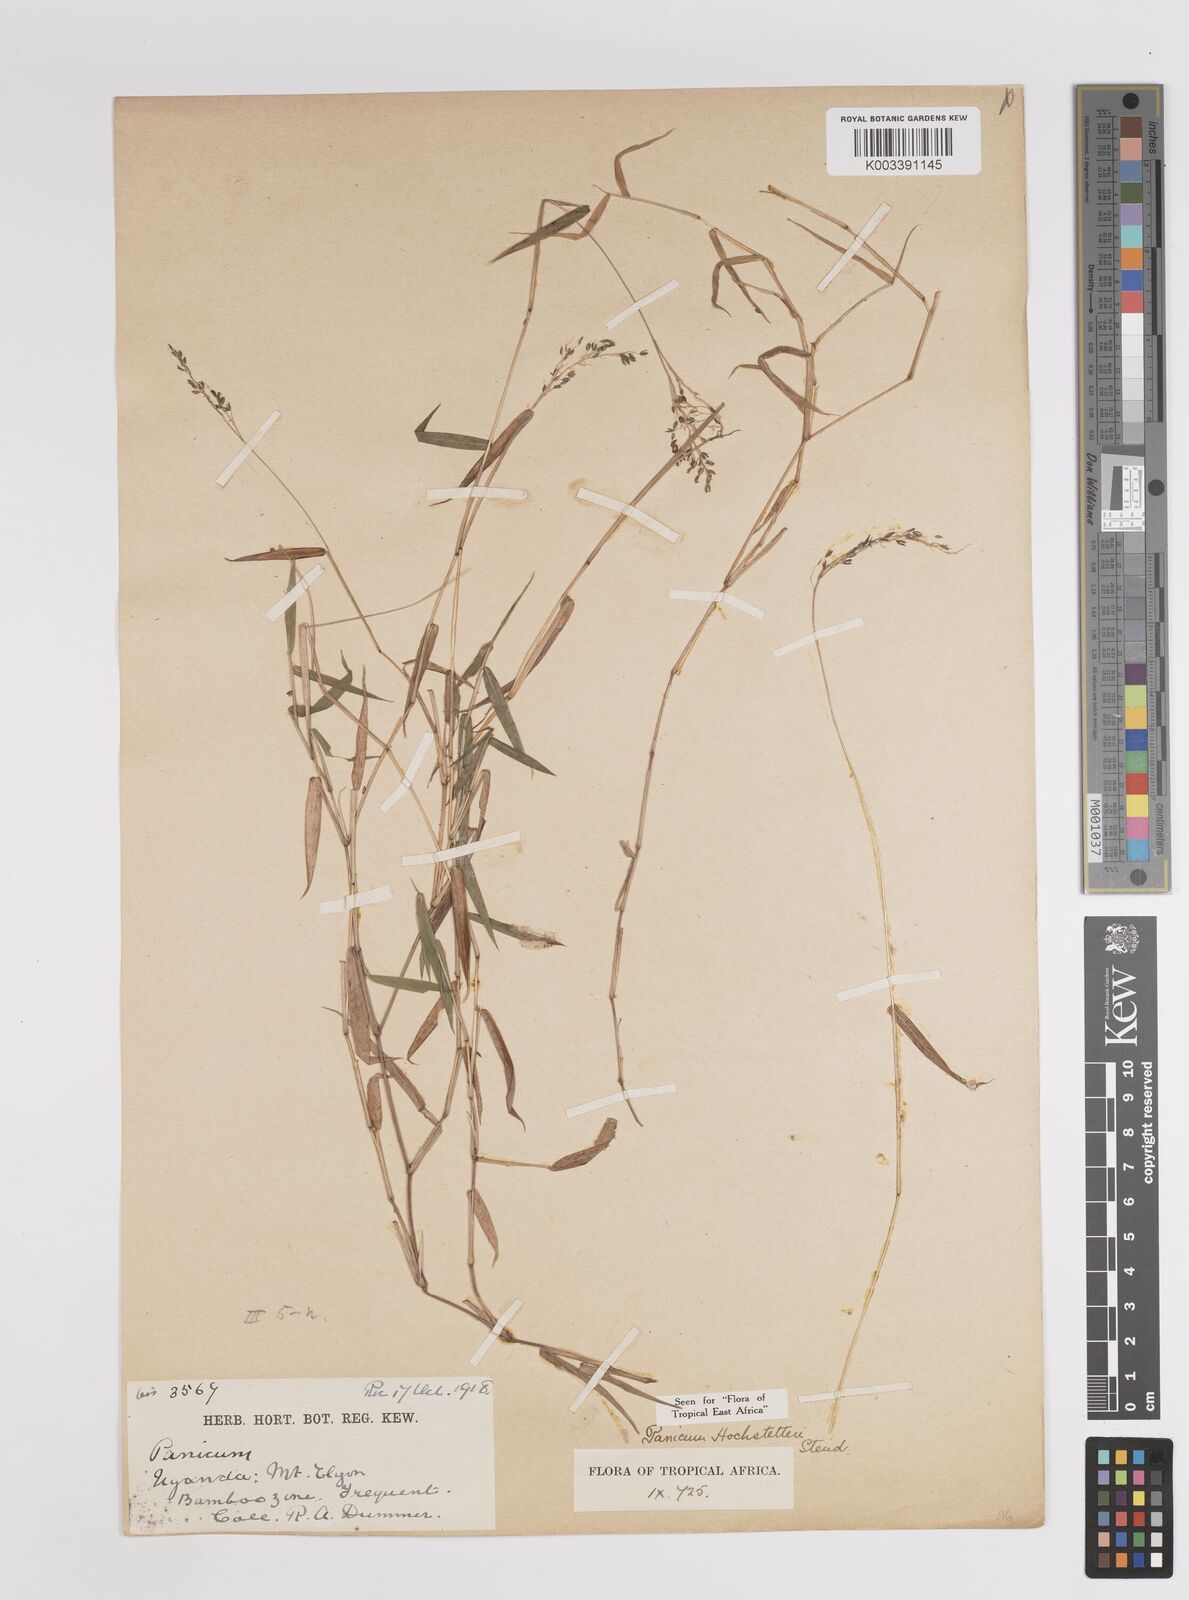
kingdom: Plantae
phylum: Tracheophyta
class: Liliopsida
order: Poales
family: Poaceae
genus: Panicum
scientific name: Panicum hochstetteri
